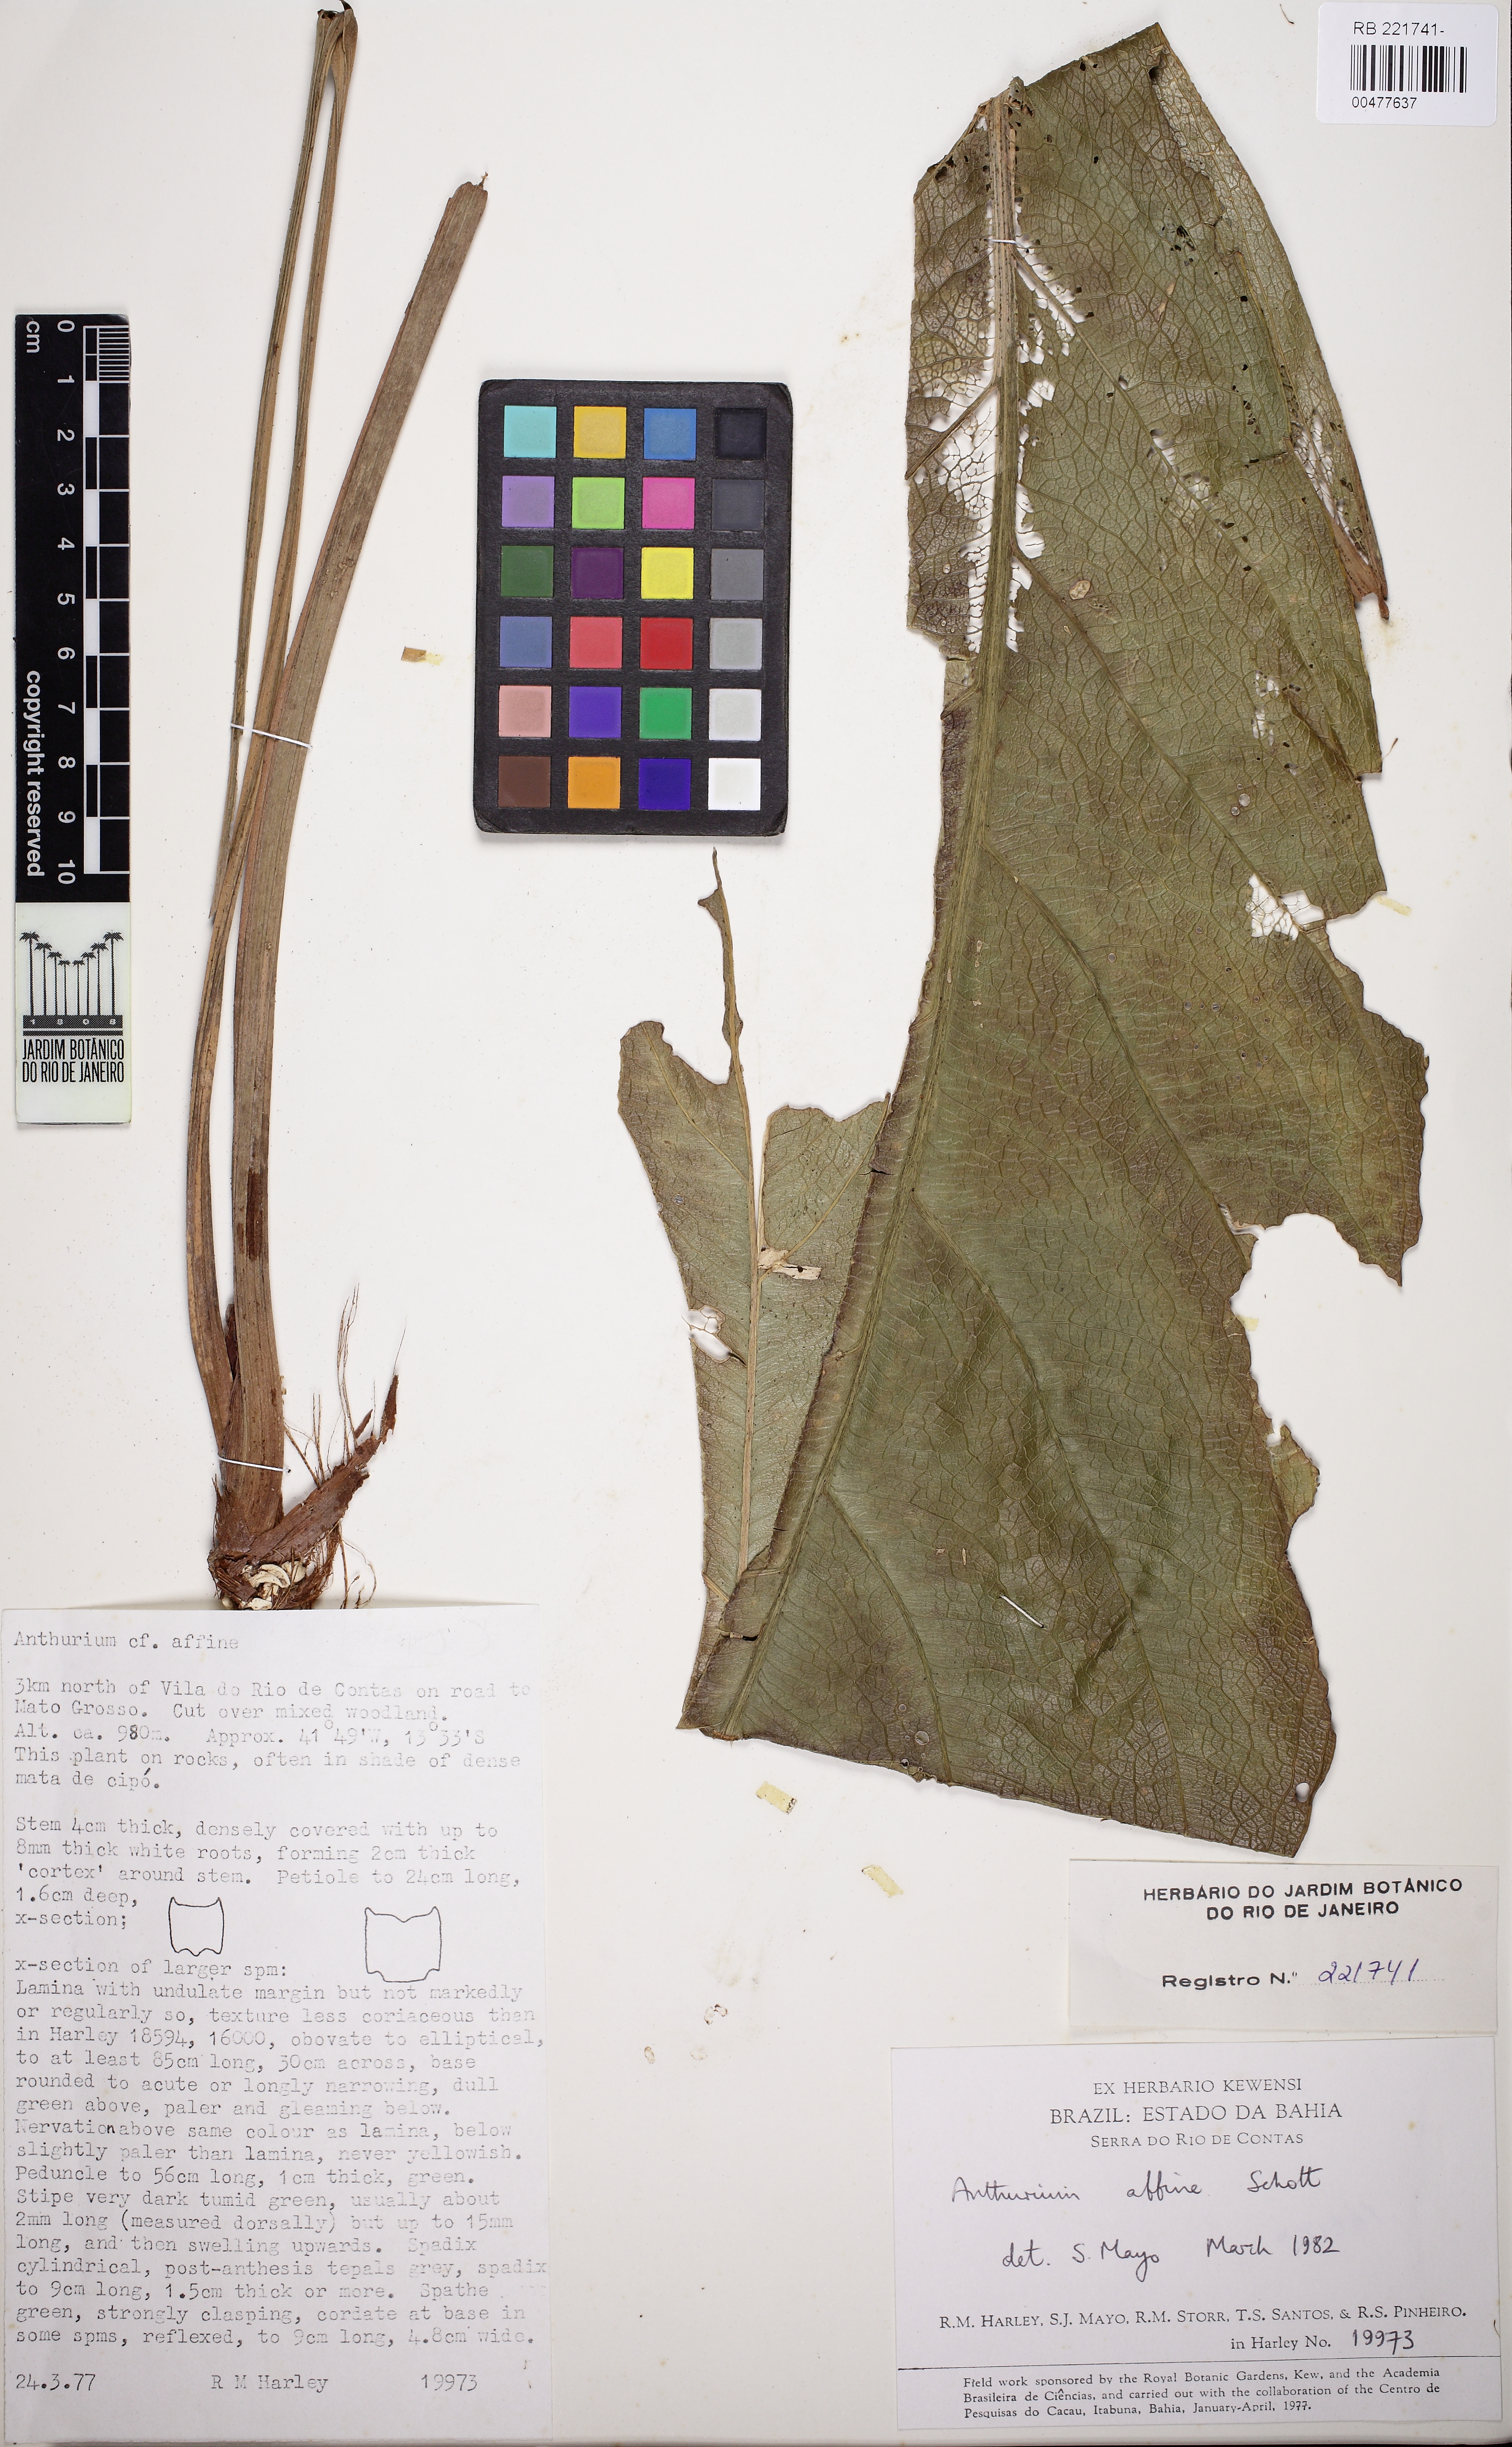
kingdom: Plantae
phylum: Tracheophyta
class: Liliopsida
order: Alismatales
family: Araceae
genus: Anthurium
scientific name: Anthurium affine
